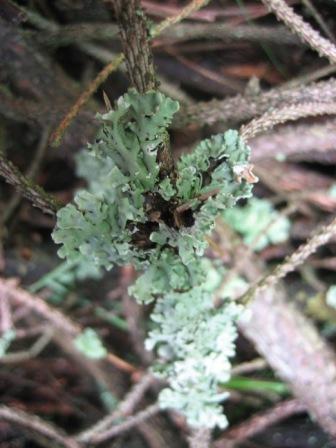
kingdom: Fungi
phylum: Ascomycota
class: Lecanoromycetes
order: Lecanorales
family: Parmeliaceae
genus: Hypogymnia
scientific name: Hypogymnia physodes
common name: almindelig kvistlav
